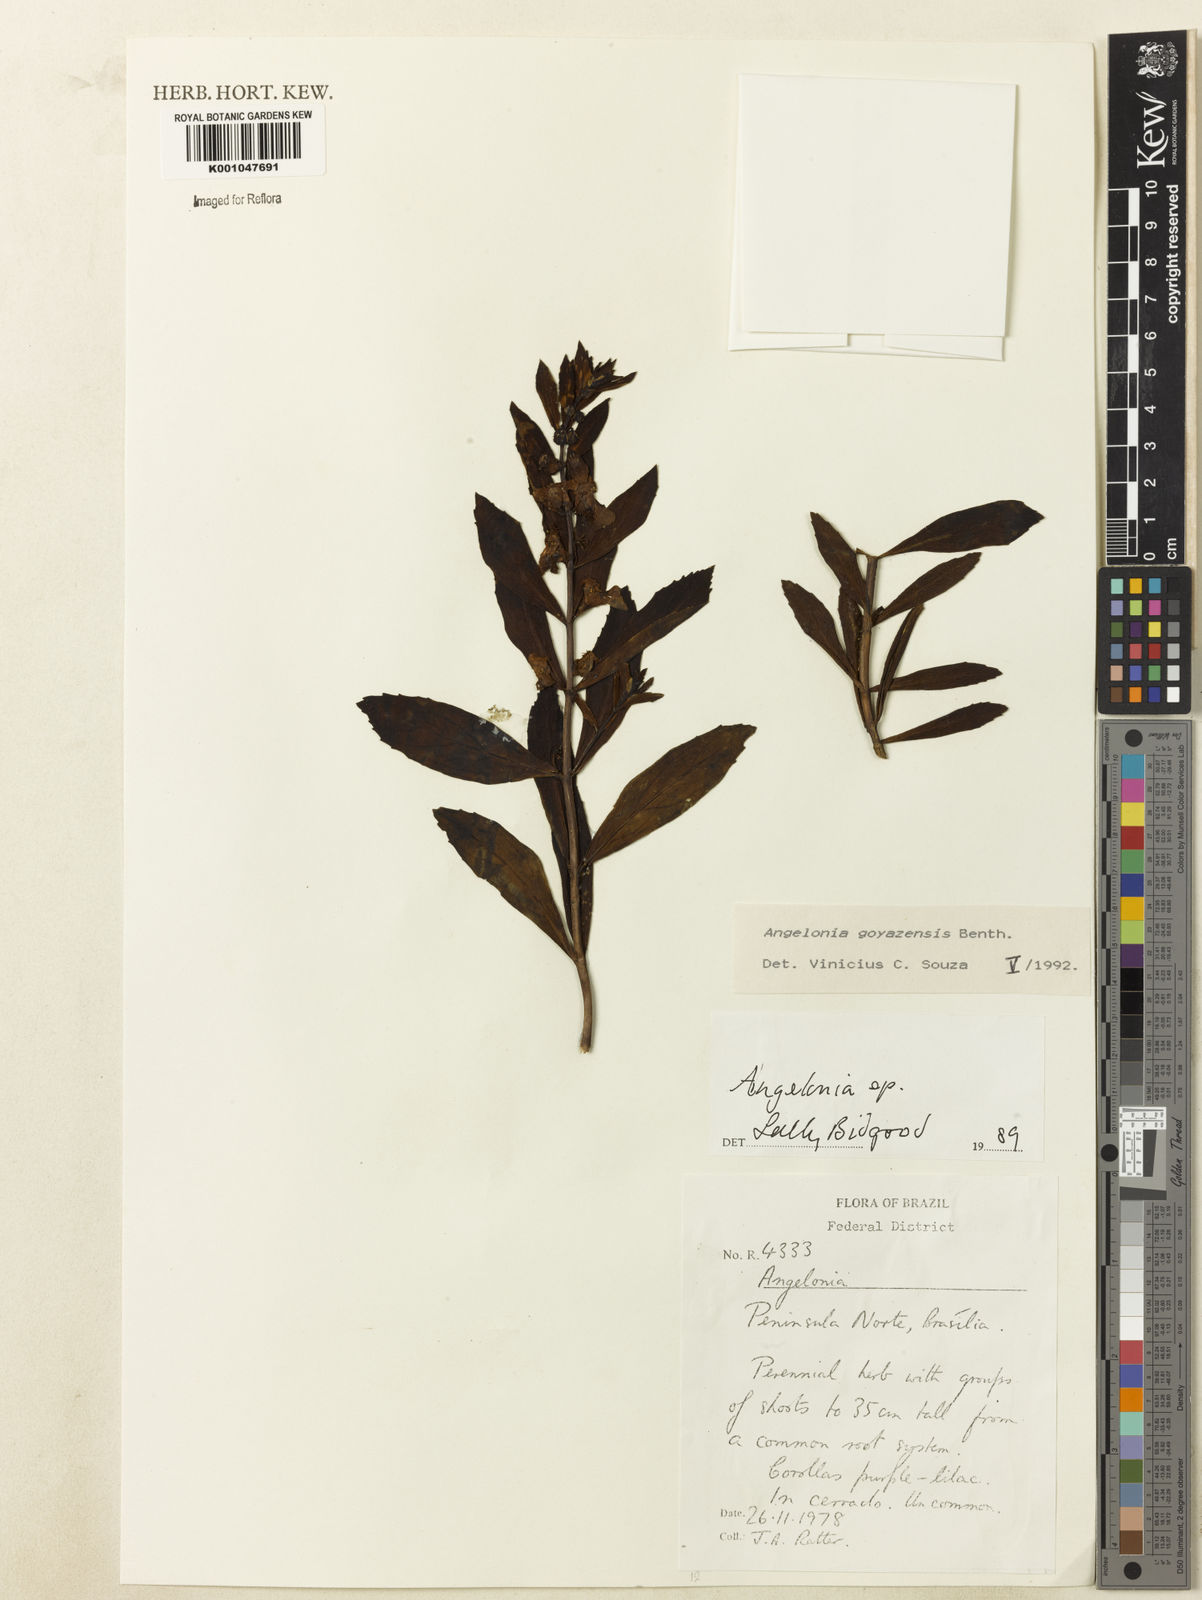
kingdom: Plantae
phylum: Tracheophyta
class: Magnoliopsida
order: Lamiales
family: Plantaginaceae
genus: Angelonia
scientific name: Angelonia goyazensis
